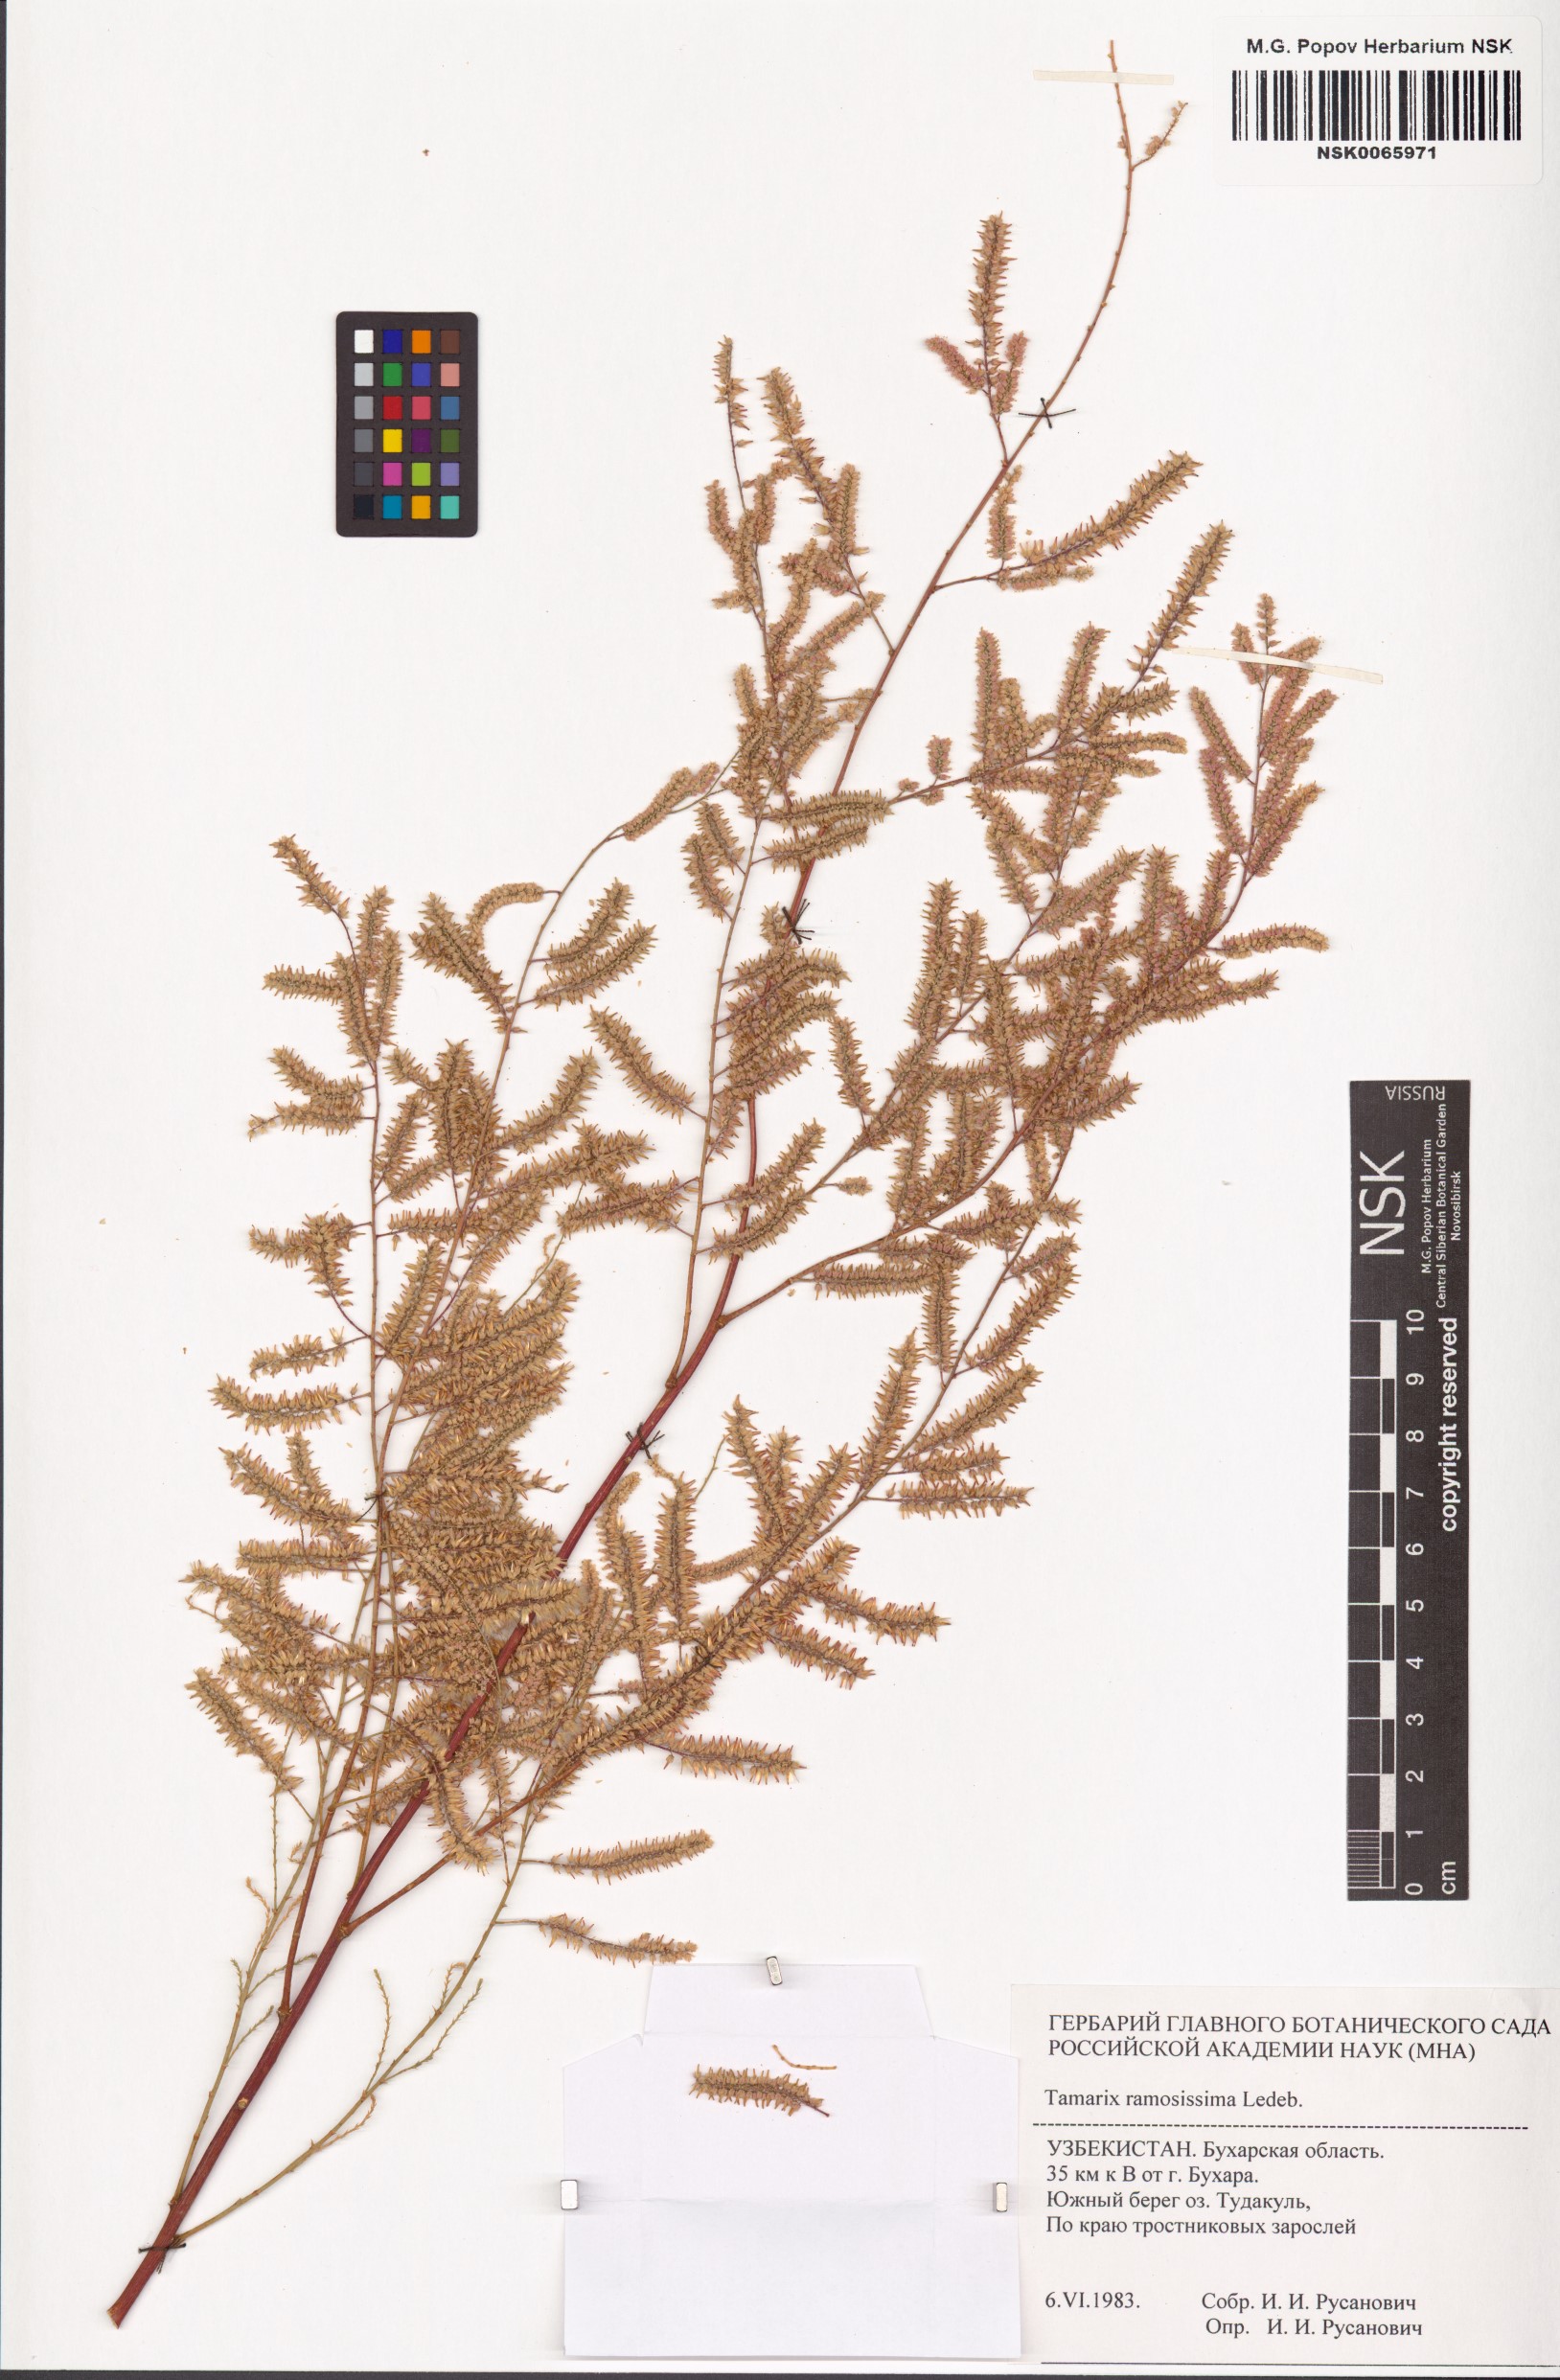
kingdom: Plantae
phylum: Tracheophyta
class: Magnoliopsida
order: Caryophyllales
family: Tamaricaceae
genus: Tamarix
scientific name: Tamarix ramosissima
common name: Pink tamarisk
